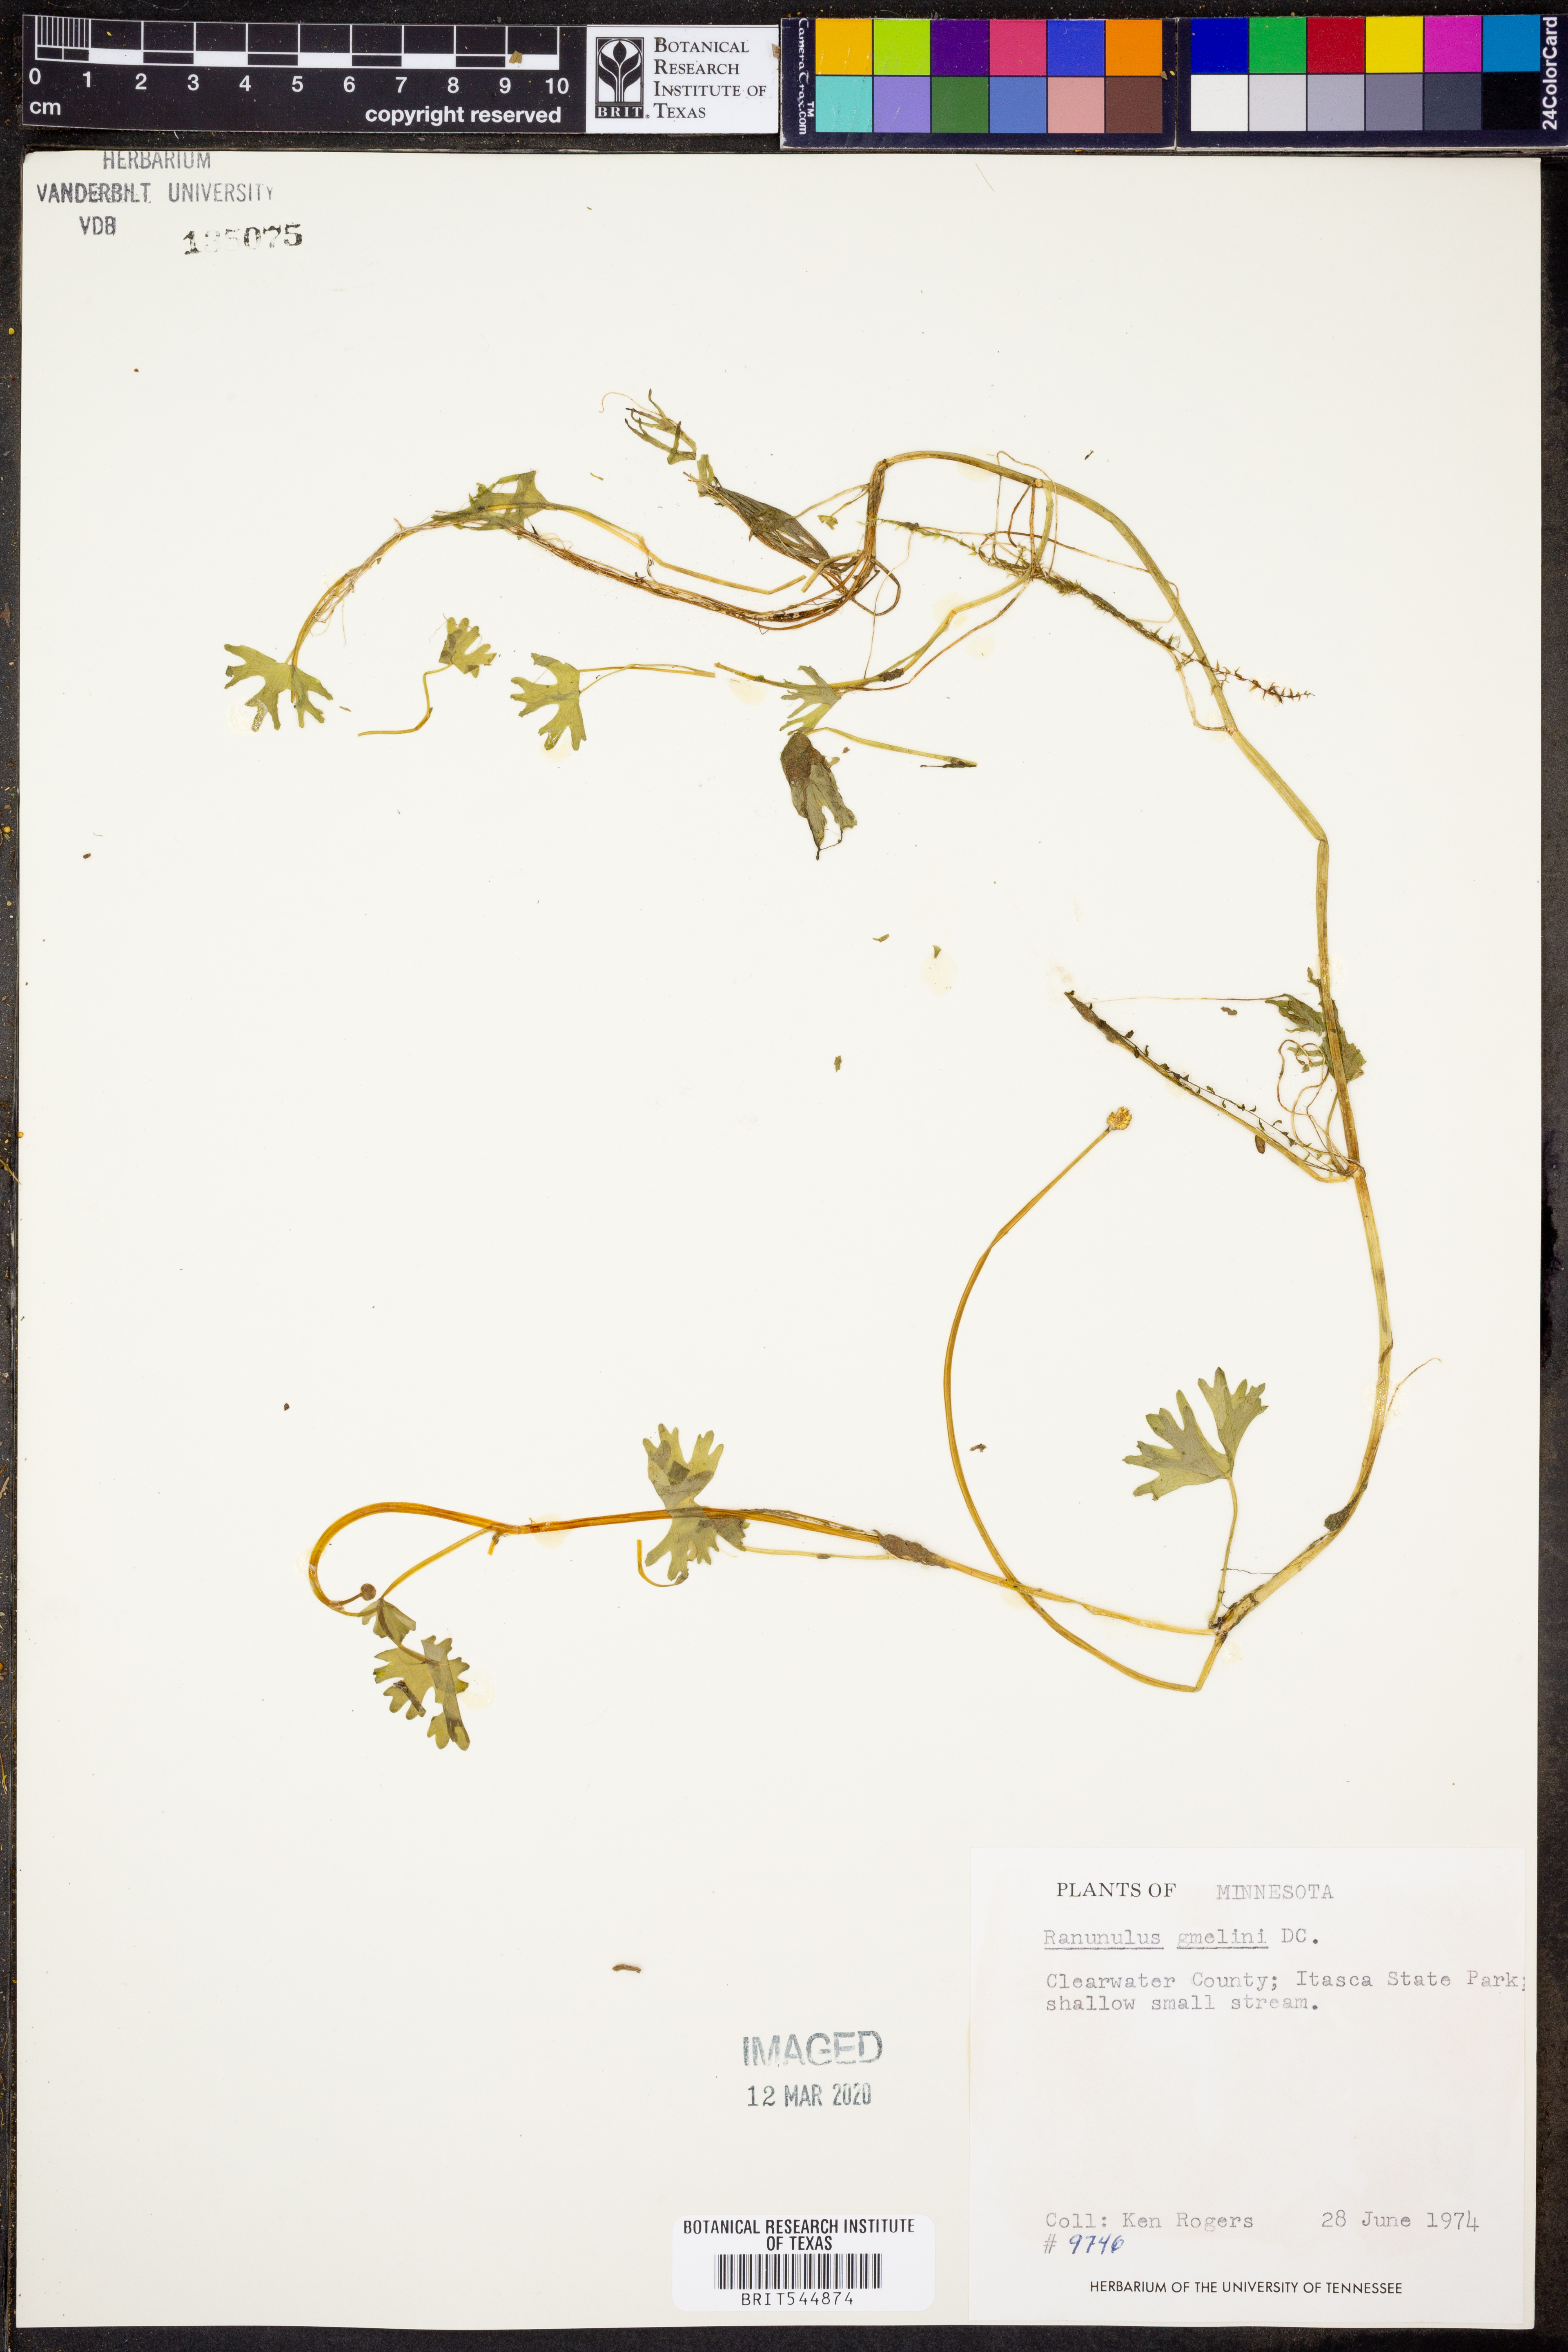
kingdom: Plantae
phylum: Tracheophyta
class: Magnoliopsida
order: Ranunculales
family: Ranunculaceae
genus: Ranunculus
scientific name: Ranunculus aquatilis
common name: Common water-crowfoot
